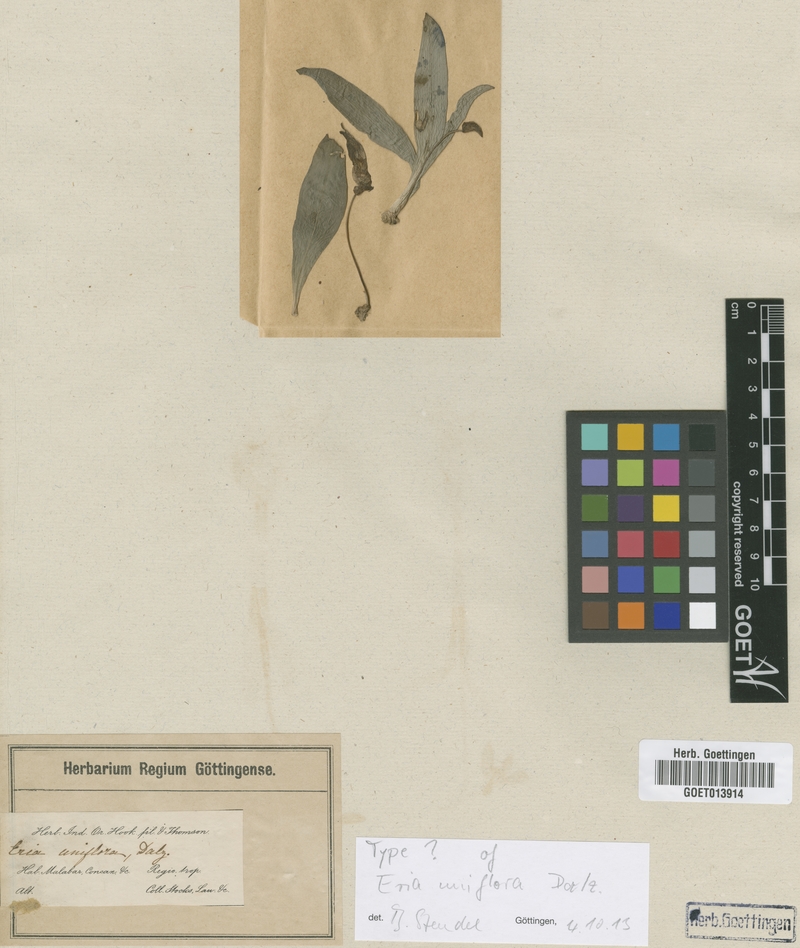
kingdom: Plantae
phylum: Tracheophyta
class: Liliopsida
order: Asparagales
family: Orchidaceae
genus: Porpax
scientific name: Porpax braccata
